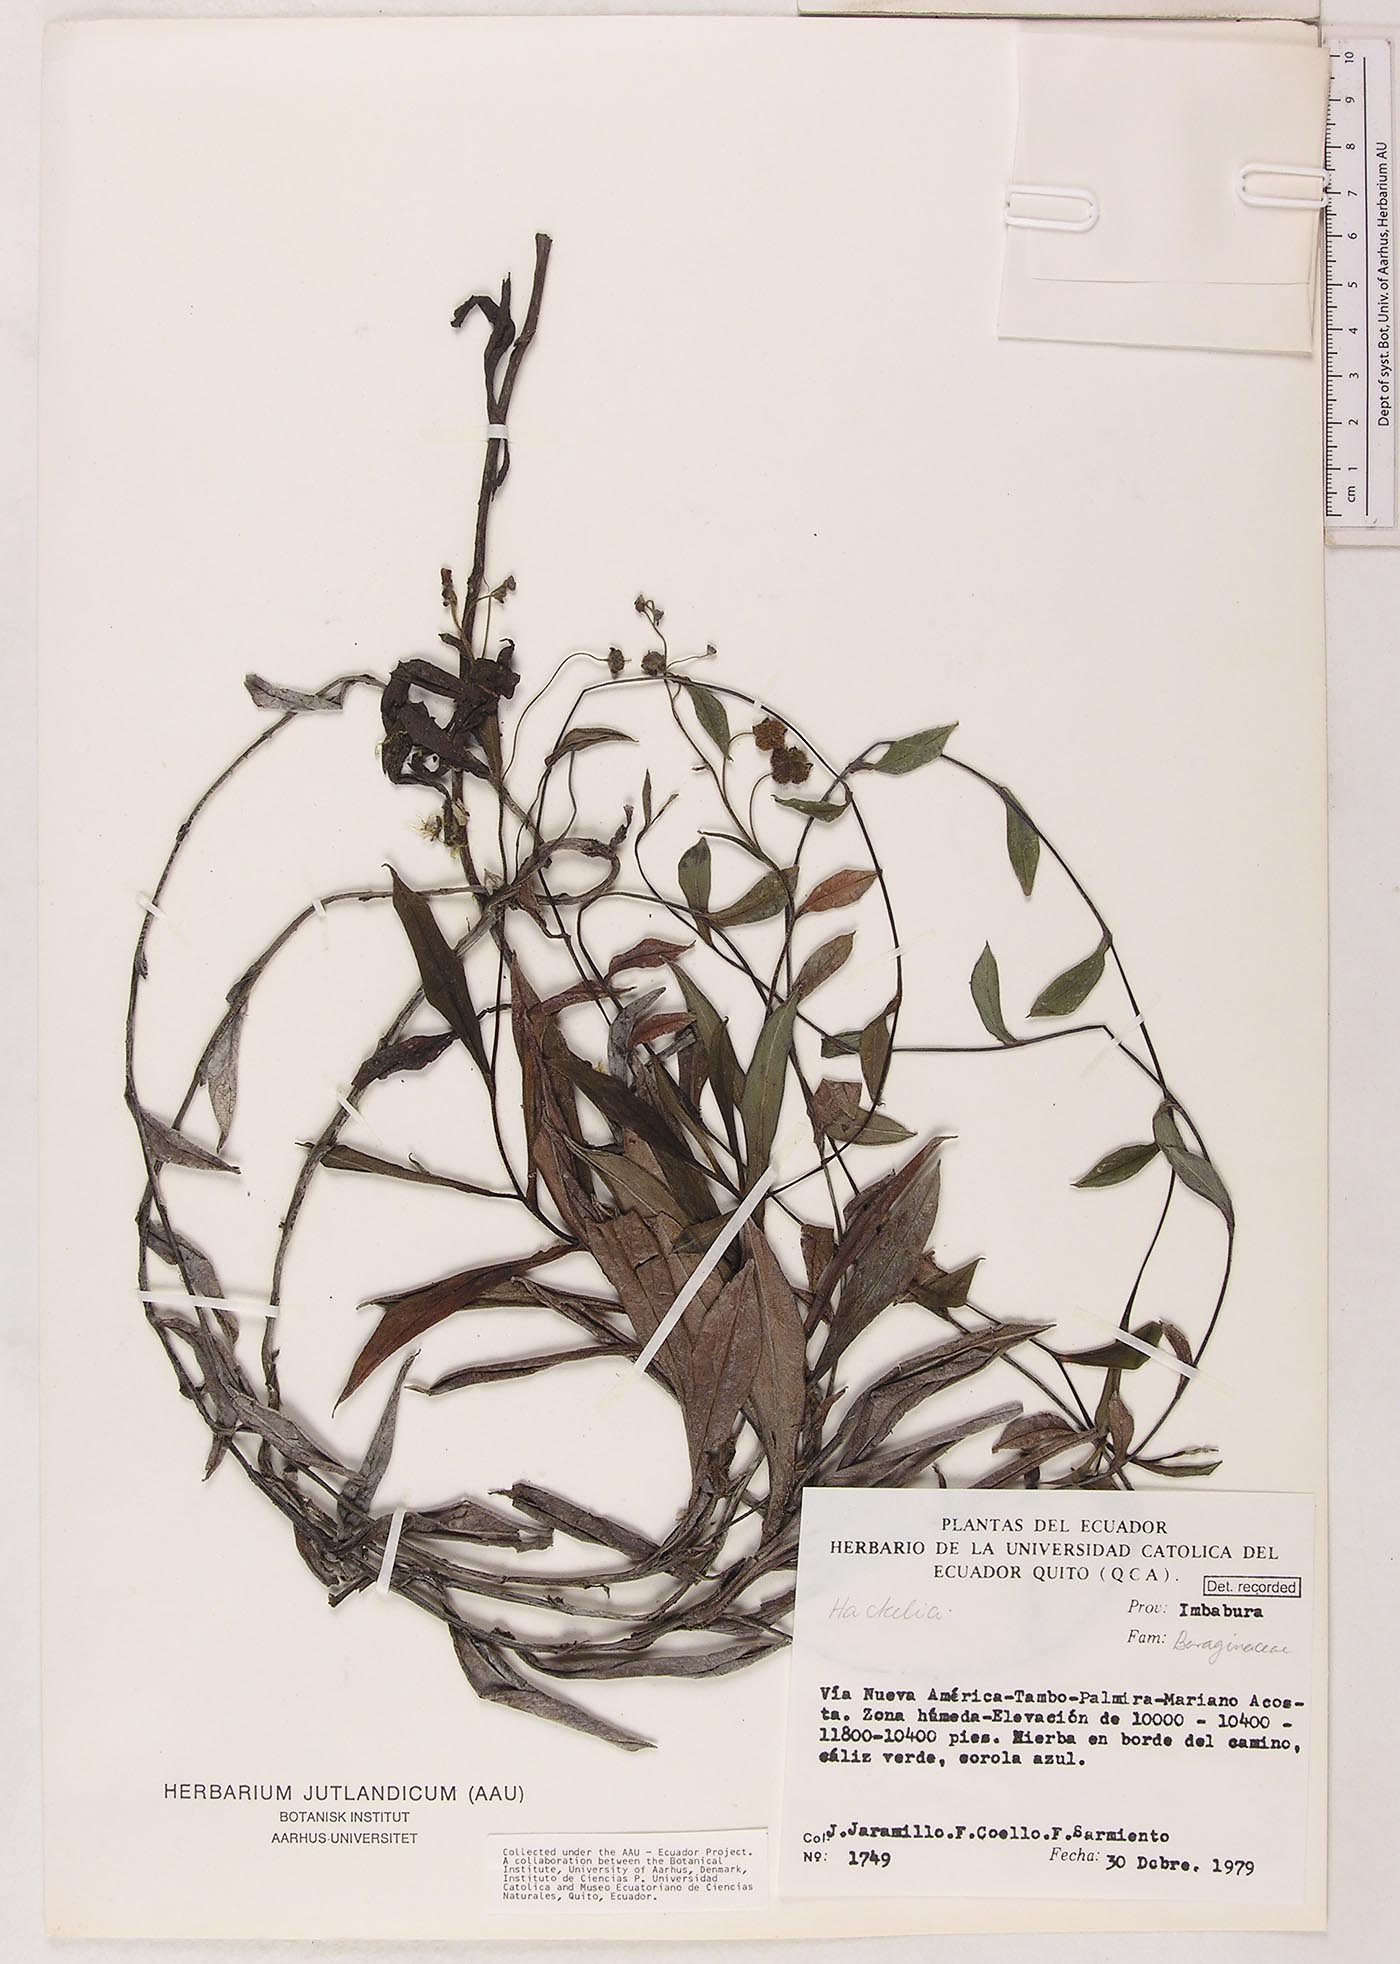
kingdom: Plantae
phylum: Tracheophyta
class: Magnoliopsida
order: Boraginales
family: Boraginaceae
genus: Selkirkia
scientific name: Selkirkia trianaeum
